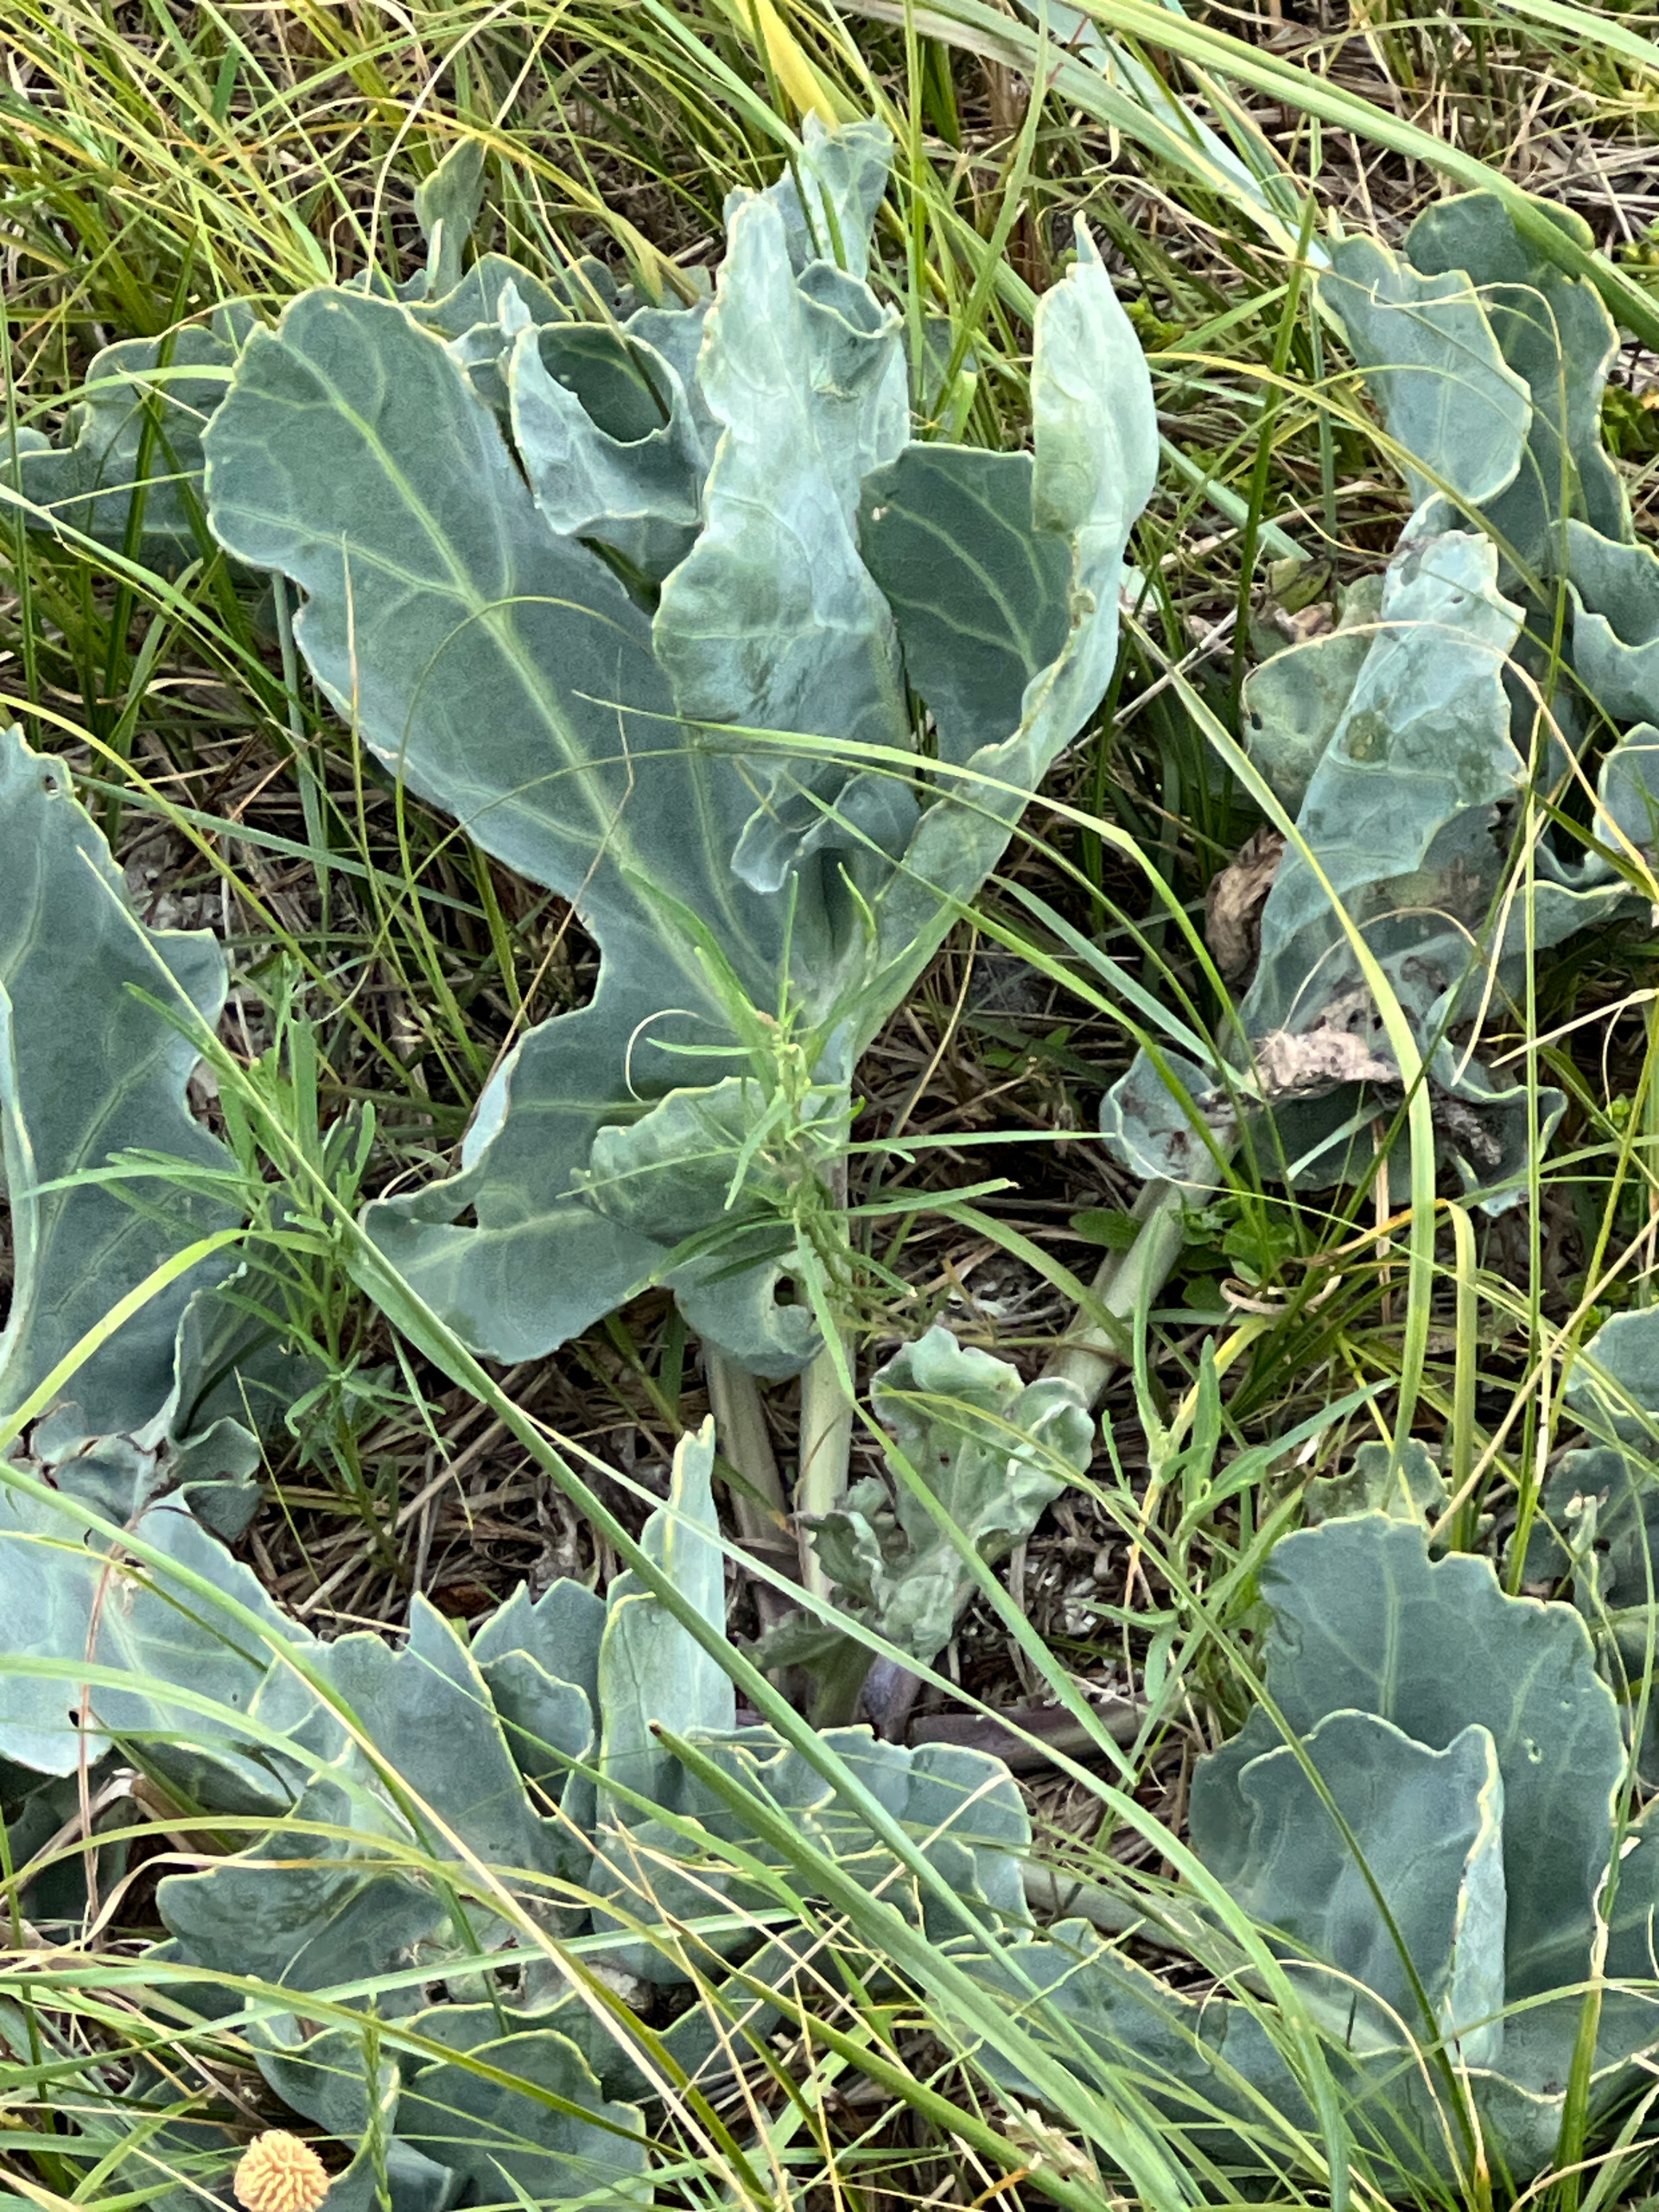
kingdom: Plantae
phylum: Tracheophyta
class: Magnoliopsida
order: Brassicales
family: Brassicaceae
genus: Crambe
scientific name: Crambe maritima
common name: Strandkål
